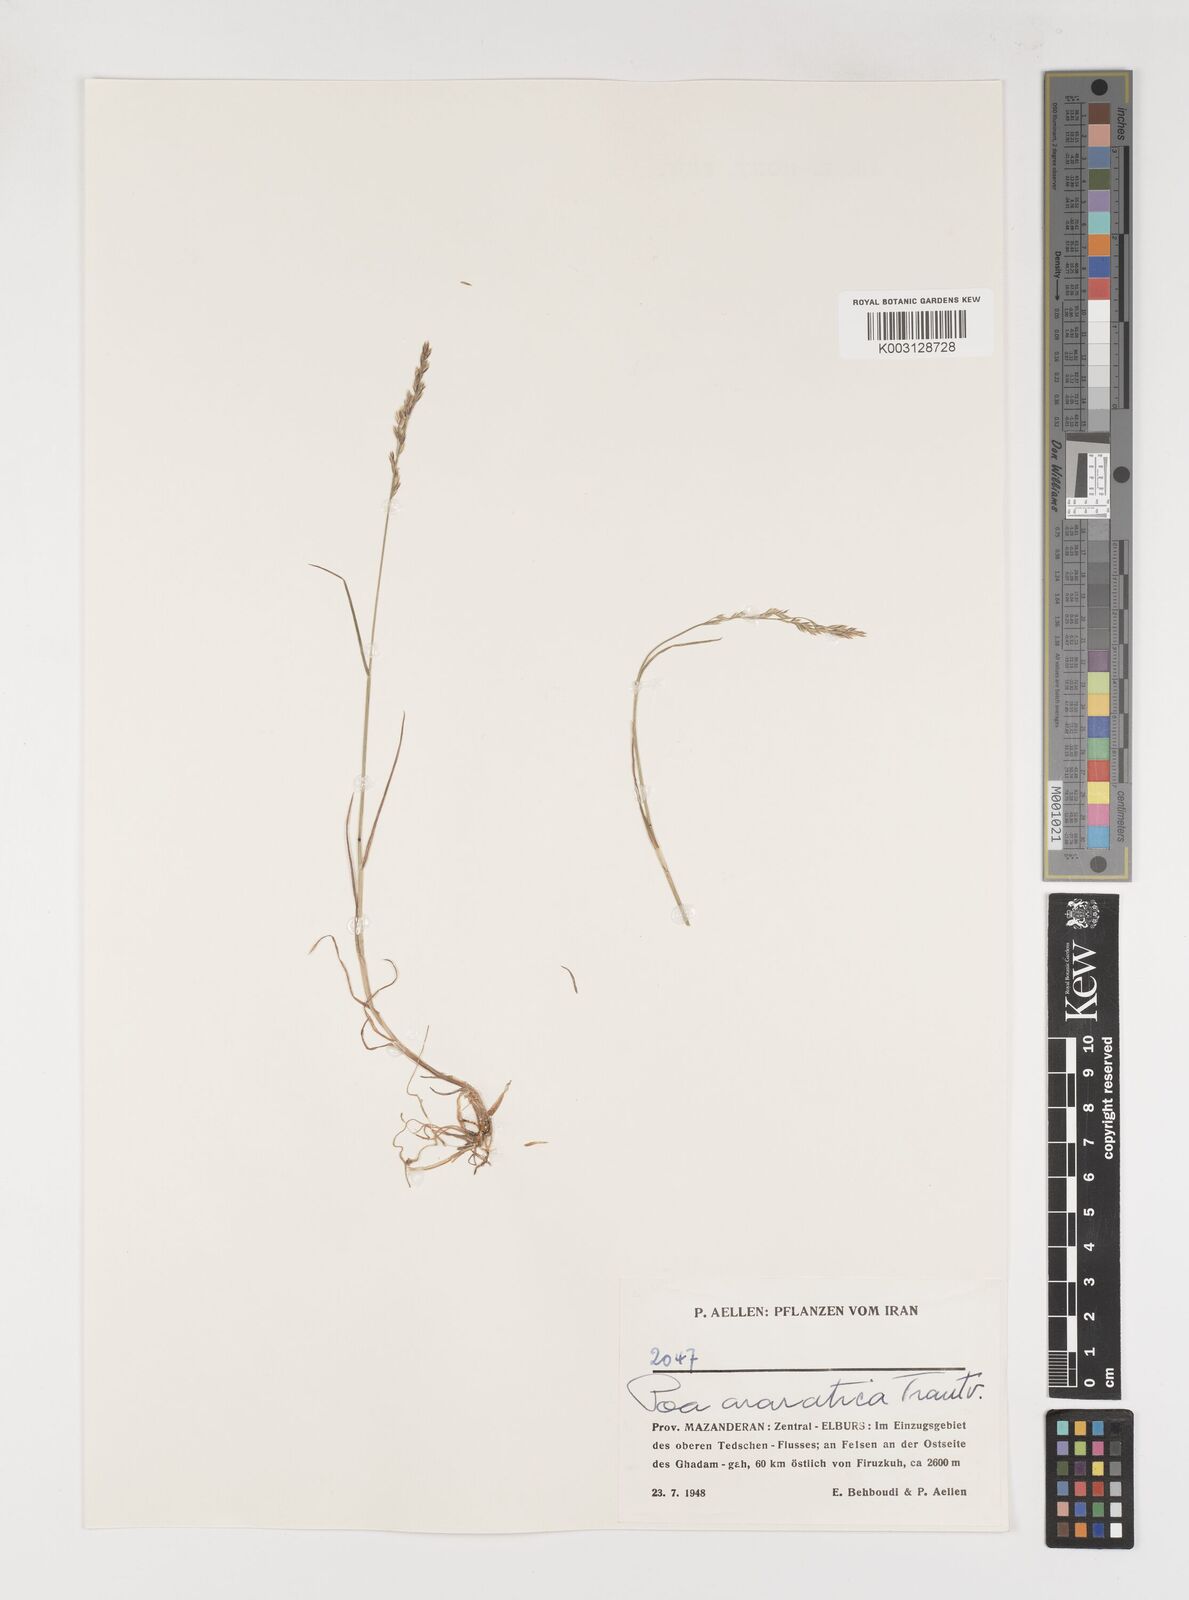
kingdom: Plantae
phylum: Tracheophyta
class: Liliopsida
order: Poales
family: Poaceae
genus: Poa
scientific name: Poa araratica
